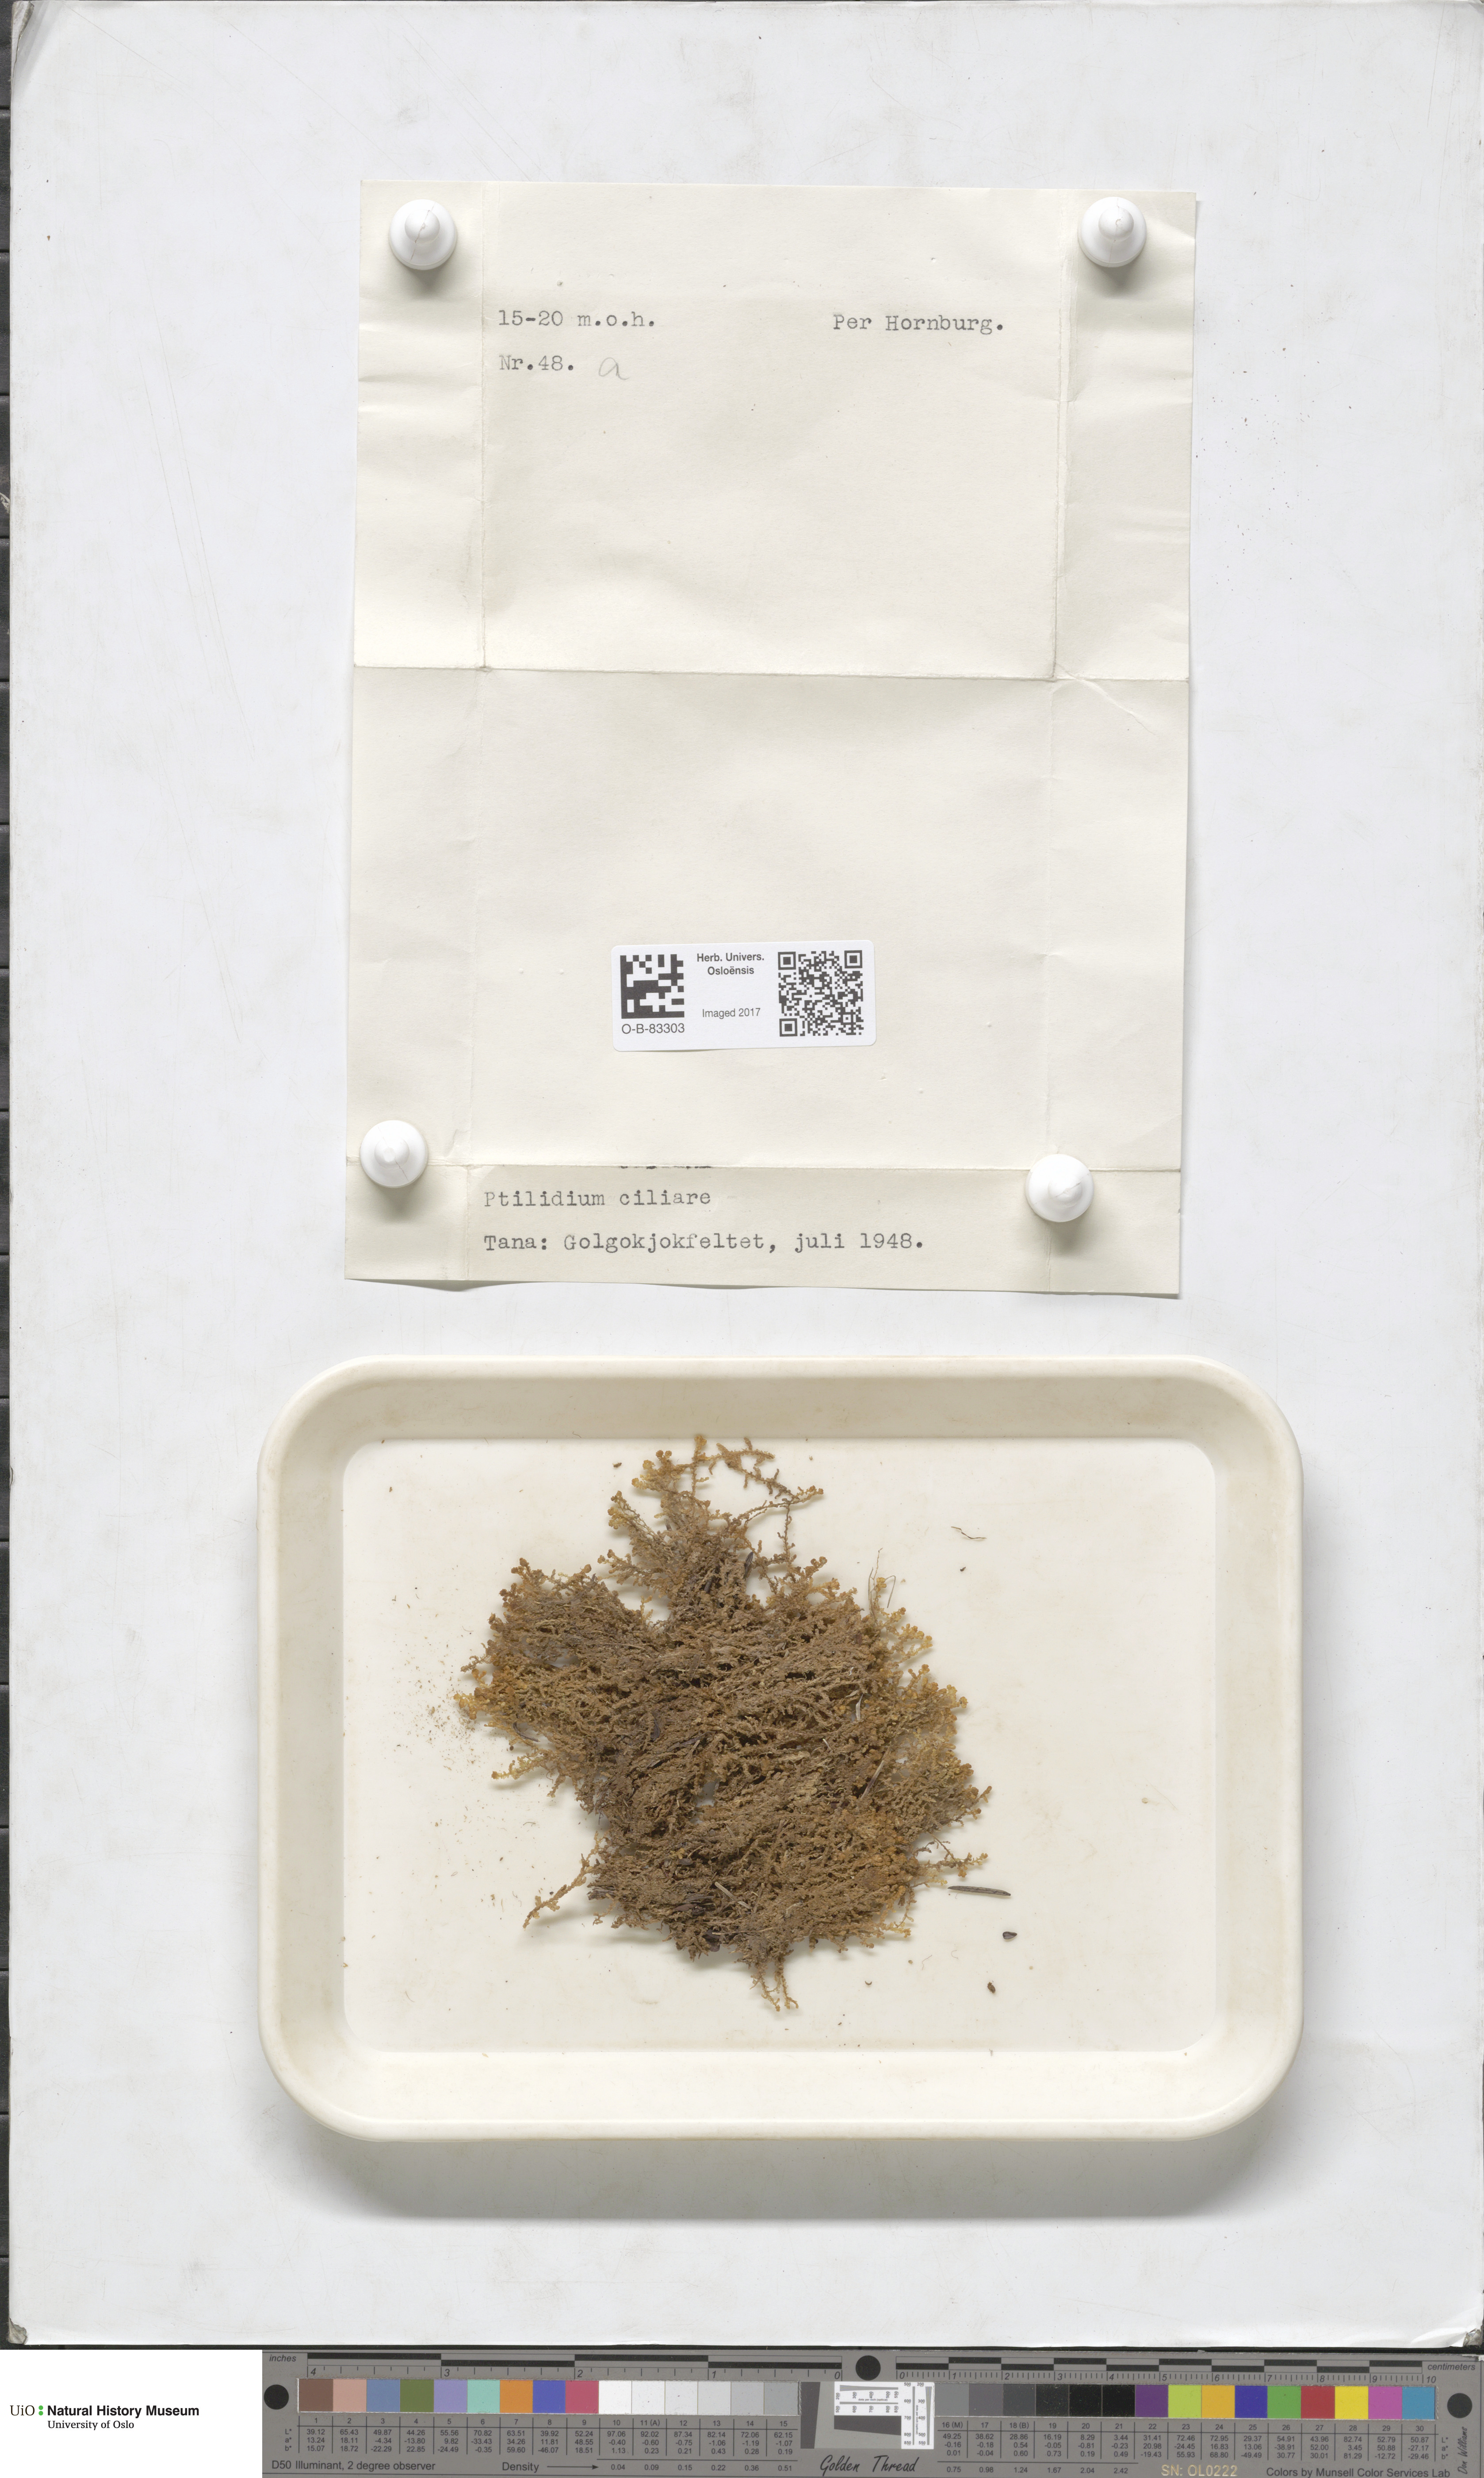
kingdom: Plantae
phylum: Marchantiophyta
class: Jungermanniopsida
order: Ptilidiales
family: Ptilidiaceae
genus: Ptilidium
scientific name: Ptilidium ciliare
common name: Ciliate fringewort
